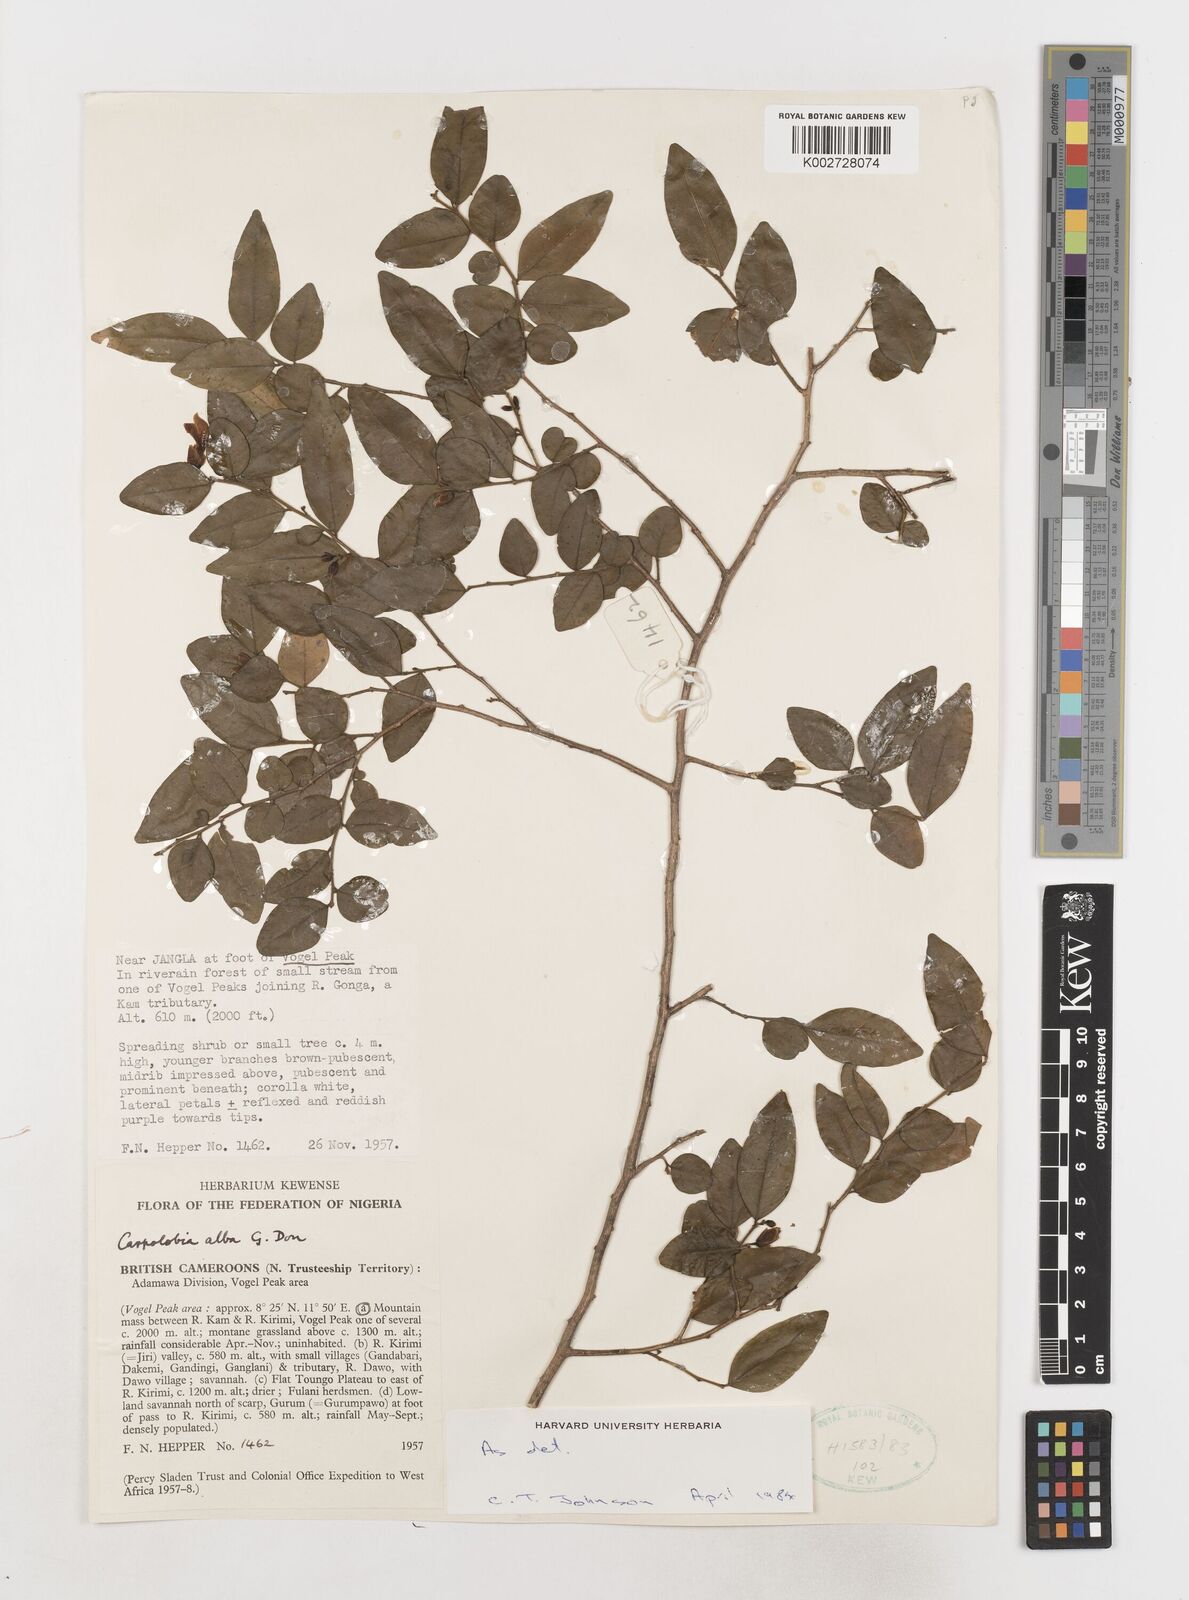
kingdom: Plantae
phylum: Tracheophyta
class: Magnoliopsida
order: Fabales
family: Polygalaceae
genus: Carpolobia
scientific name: Carpolobia alba
